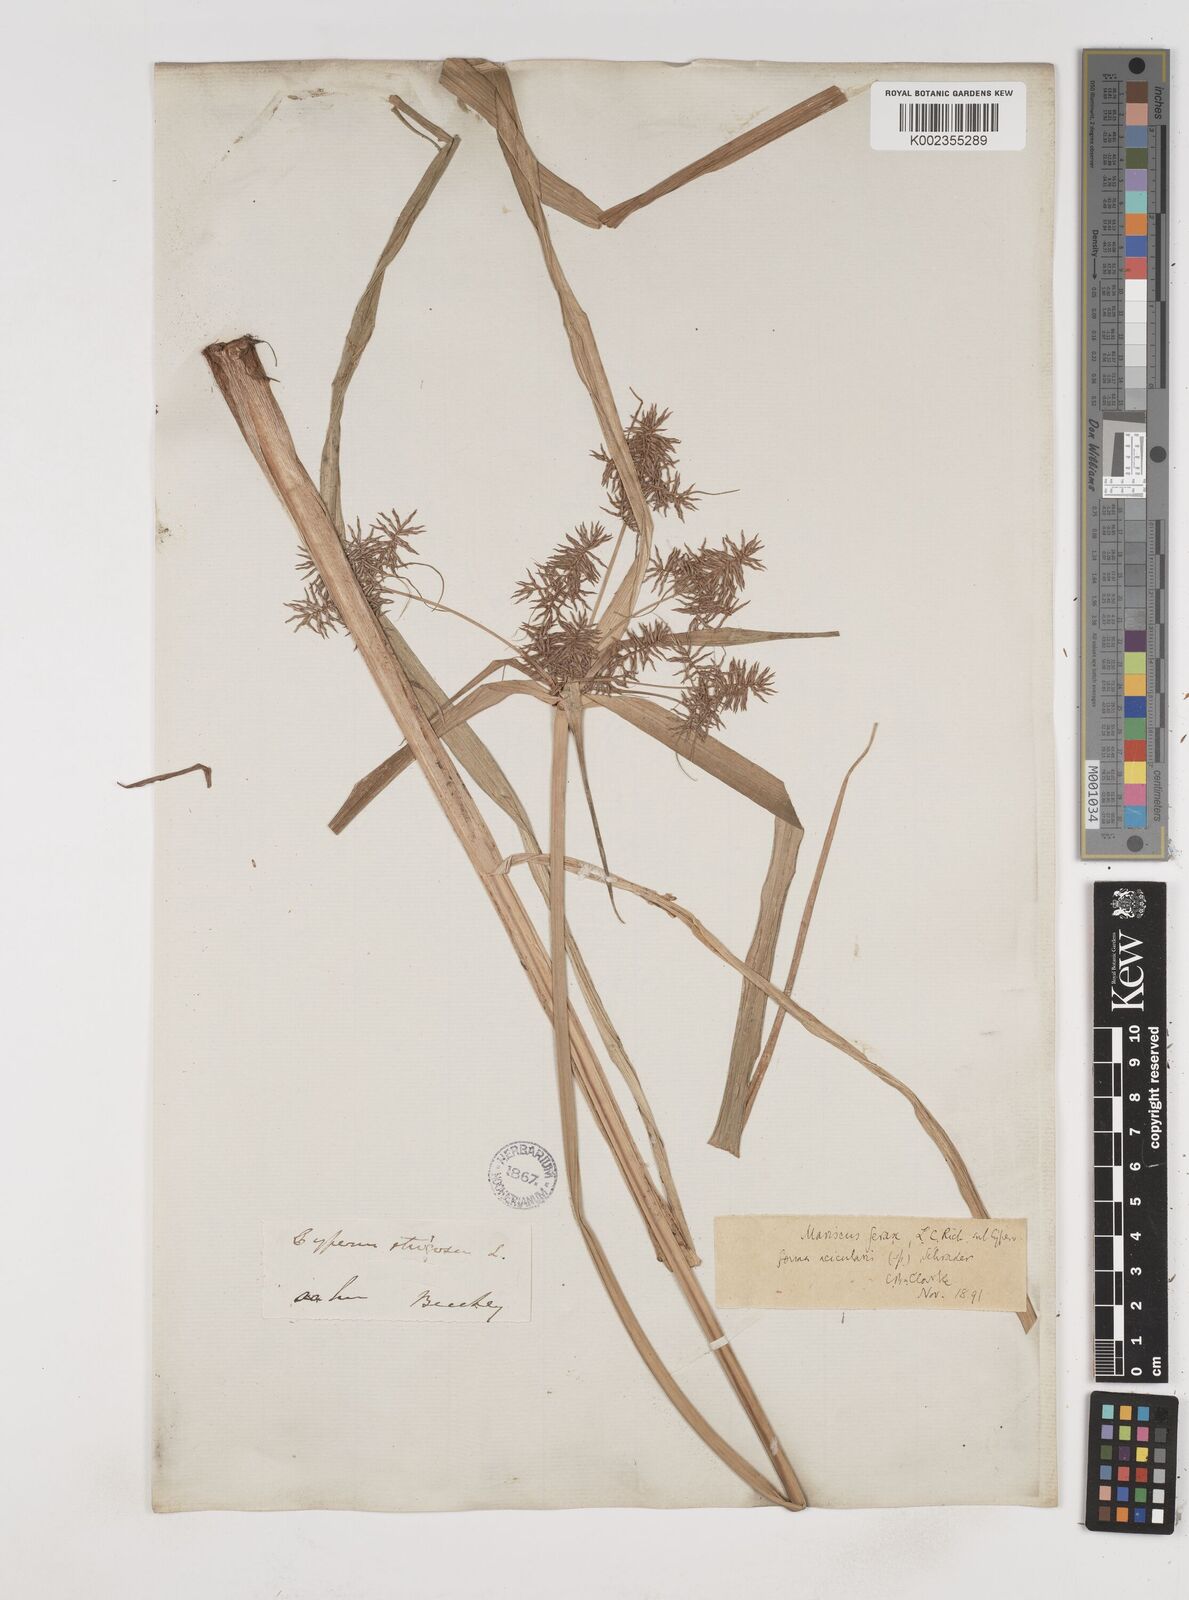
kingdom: Plantae
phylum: Tracheophyta
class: Liliopsida
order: Poales
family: Cyperaceae
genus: Cyperus
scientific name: Cyperus strongii
